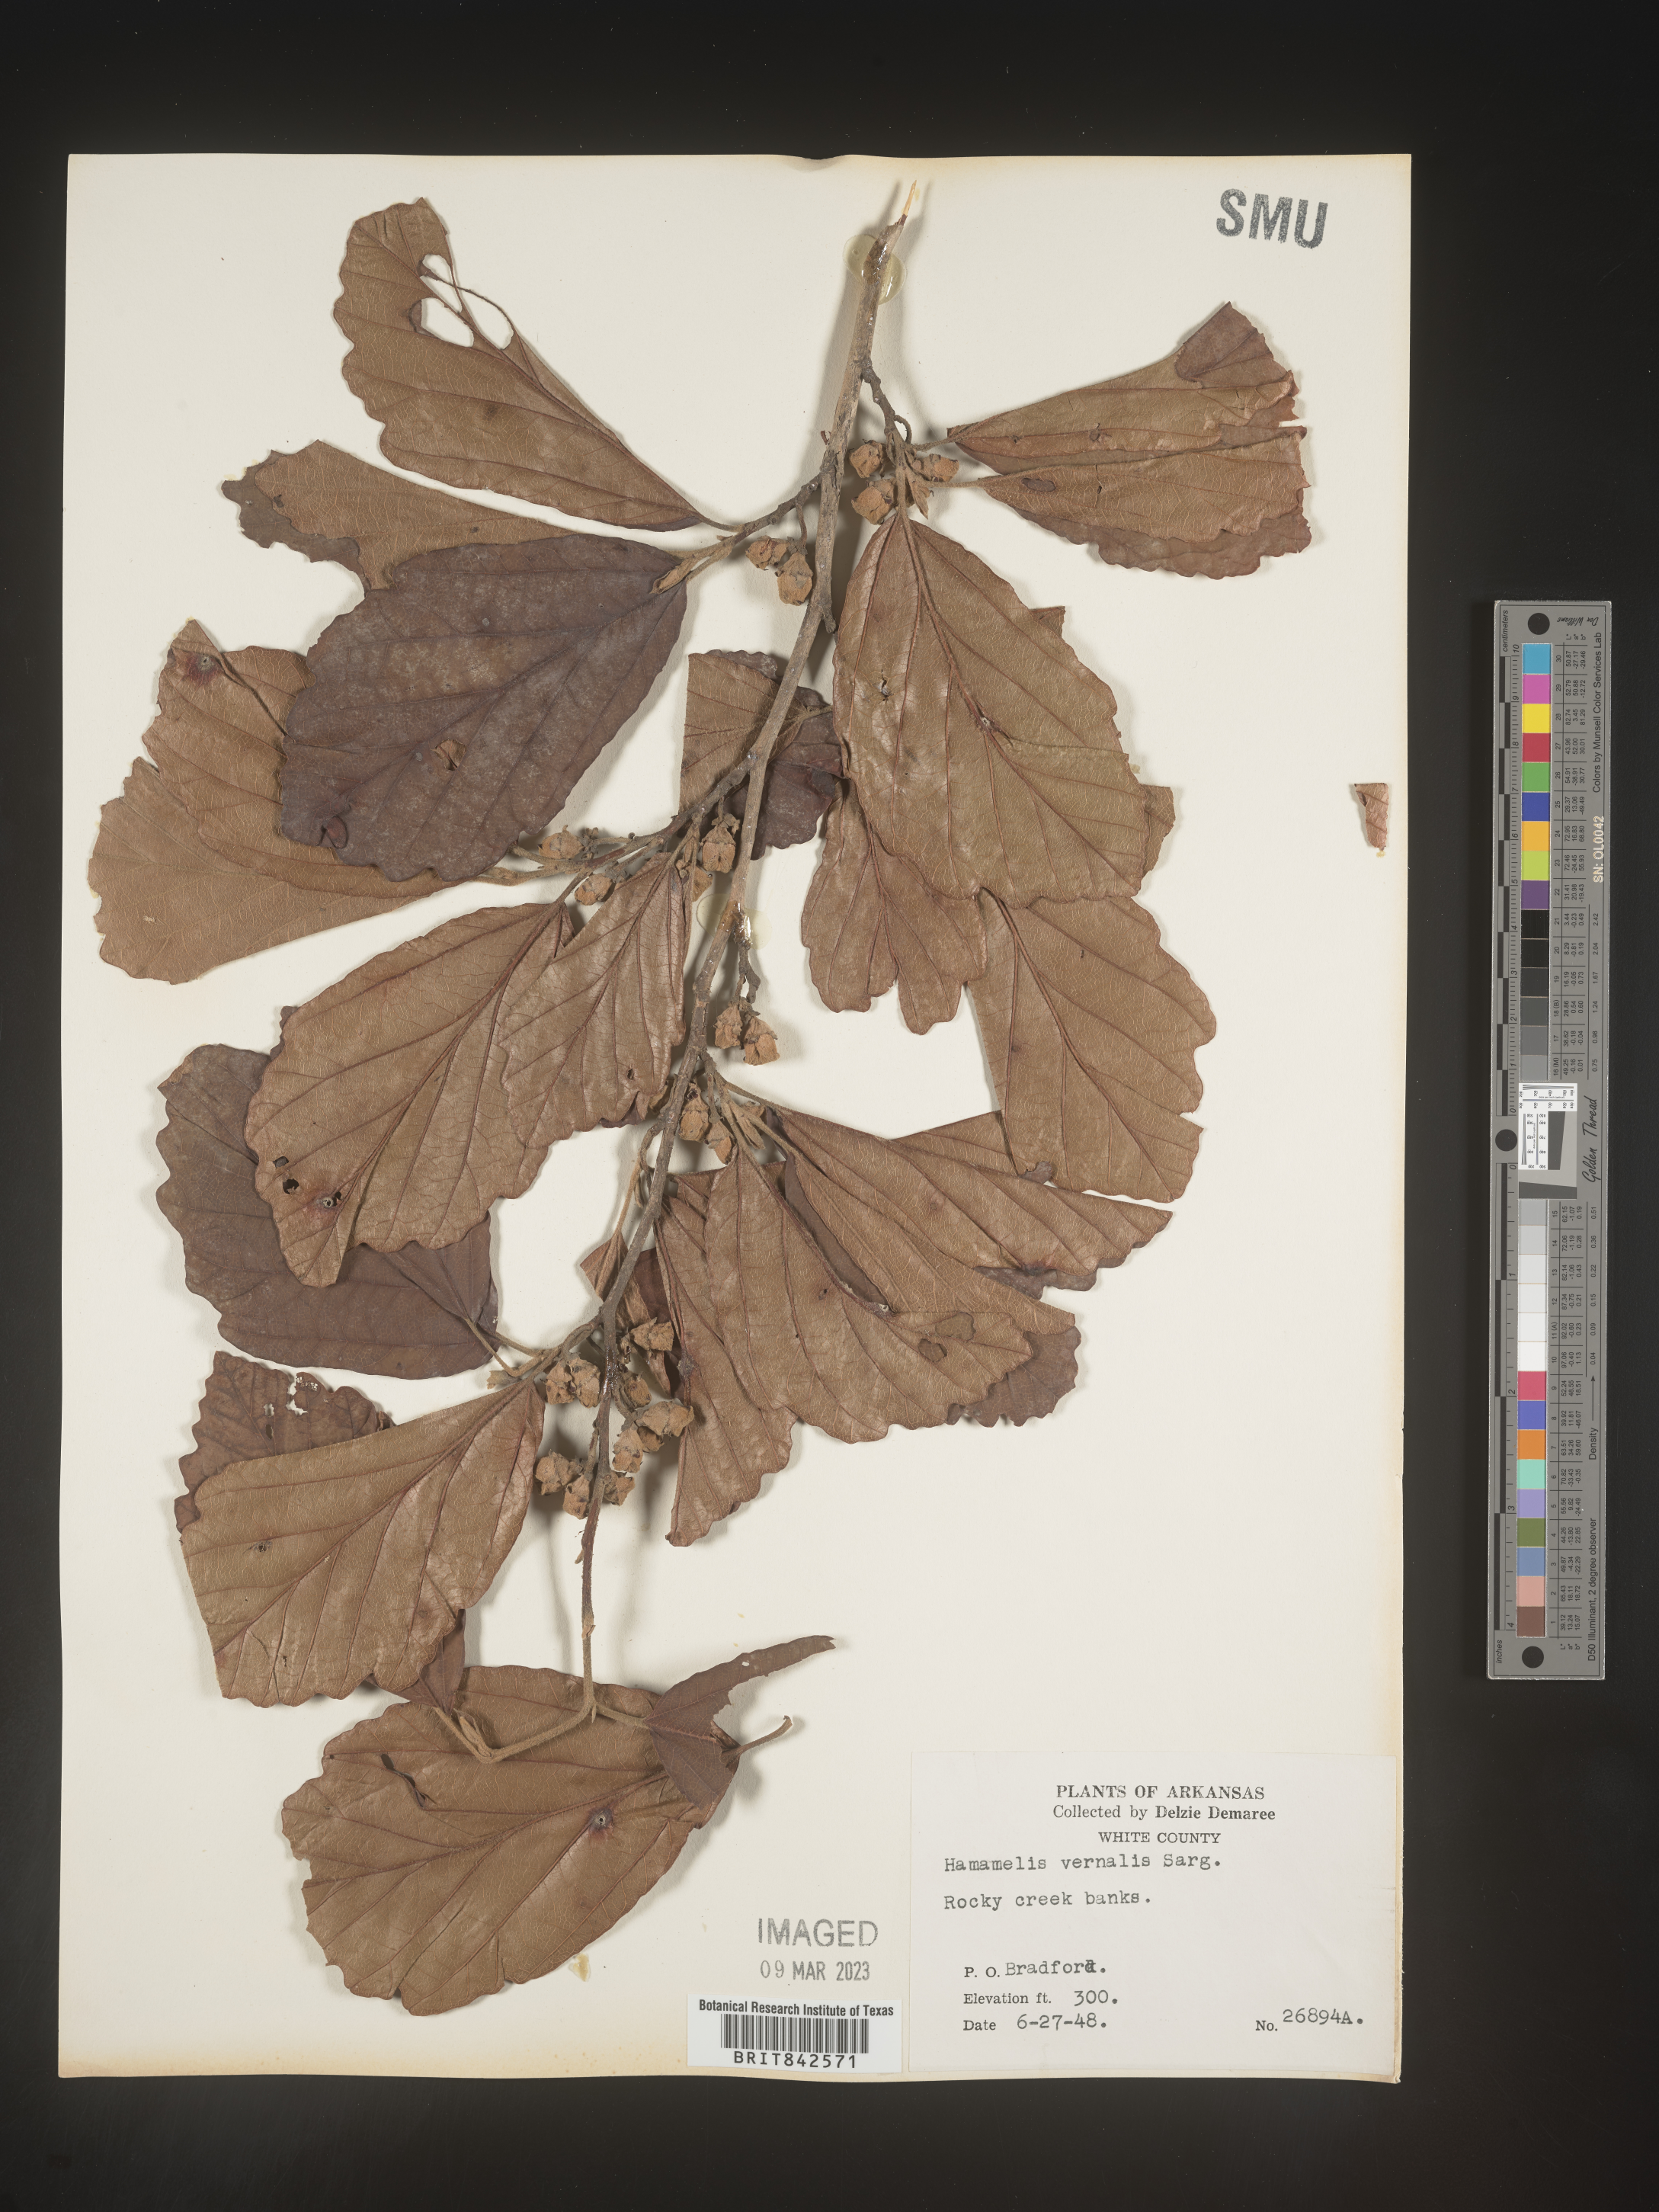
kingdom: Plantae
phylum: Tracheophyta
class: Magnoliopsida
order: Saxifragales
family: Hamamelidaceae
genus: Hamamelis
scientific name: Hamamelis vernalis
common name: Ozark witch-hazel
